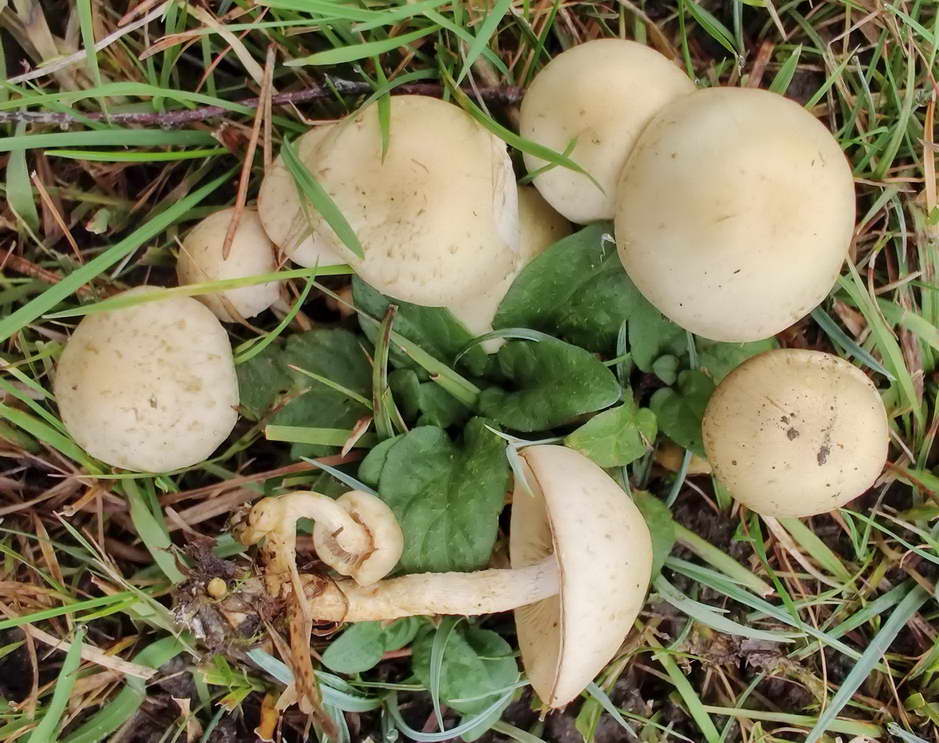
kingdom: Fungi
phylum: Basidiomycota
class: Agaricomycetes
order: Agaricales
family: Strophariaceae
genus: Pholiota
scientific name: Pholiota gummosa
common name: grøngul skælhat
